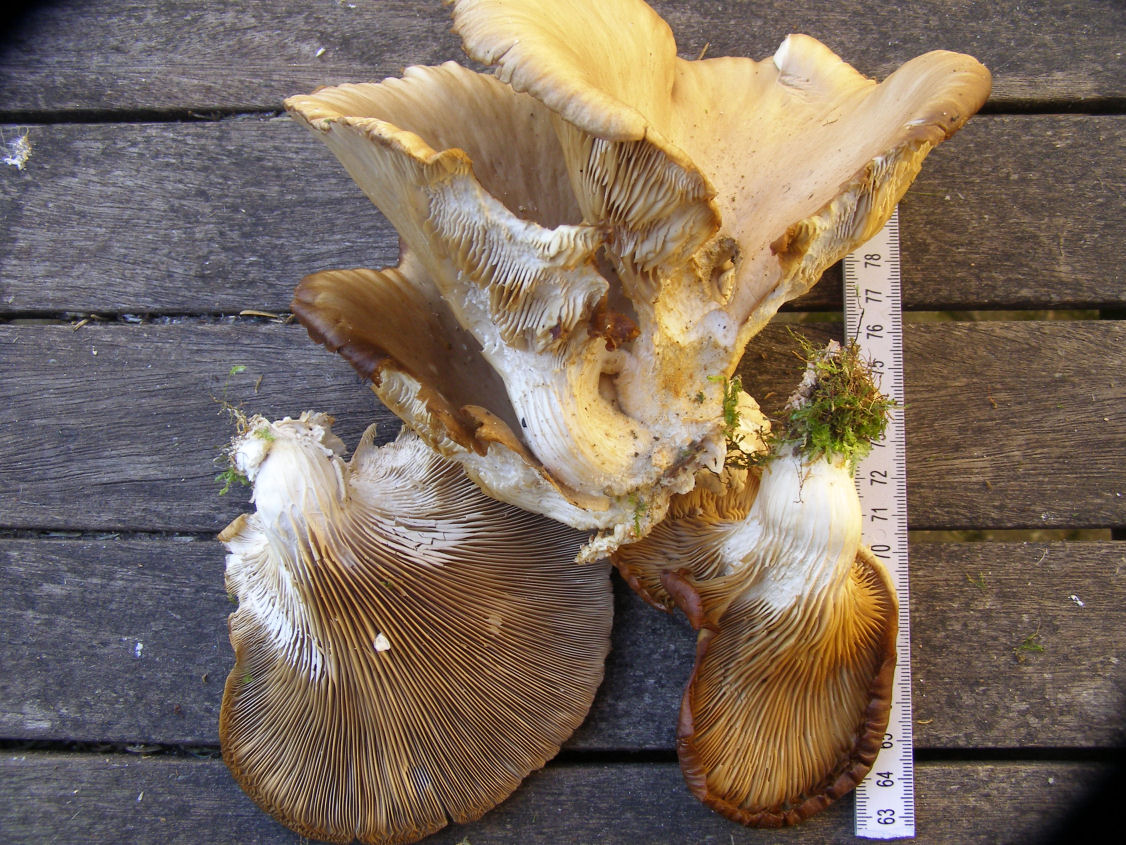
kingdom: Fungi
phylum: Basidiomycota
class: Agaricomycetes
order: Agaricales
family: Pleurotaceae
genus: Pleurotus
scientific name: Pleurotus cornucopiae
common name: tragt-østershat
